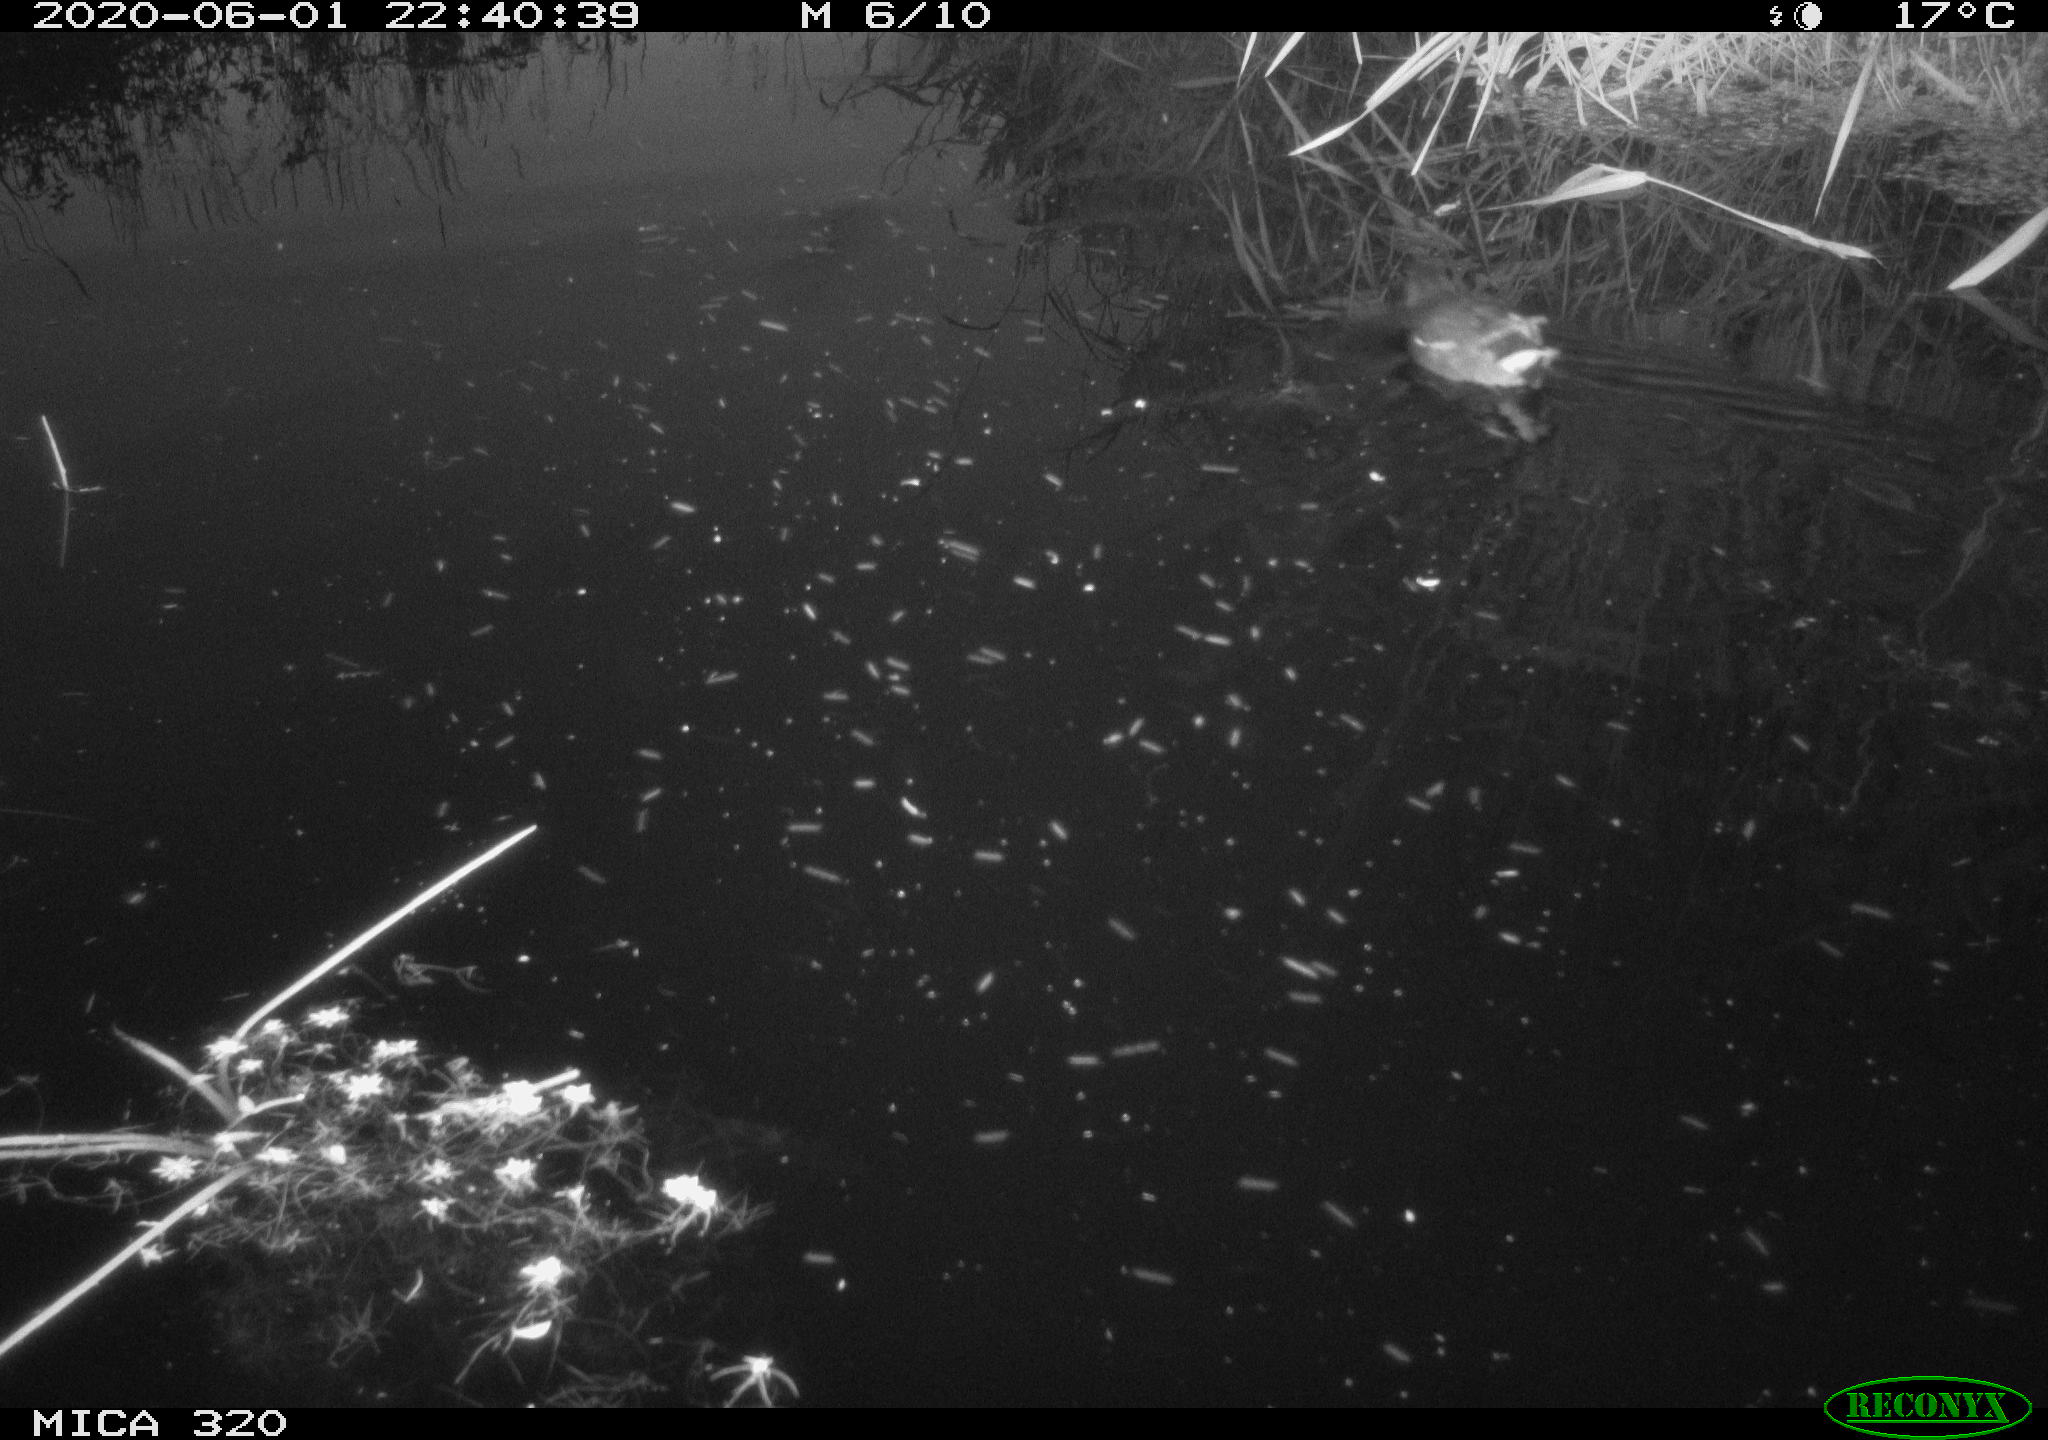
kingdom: Animalia
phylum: Chordata
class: Aves
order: Gruiformes
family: Rallidae
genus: Gallinula
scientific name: Gallinula chloropus
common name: Common moorhen
